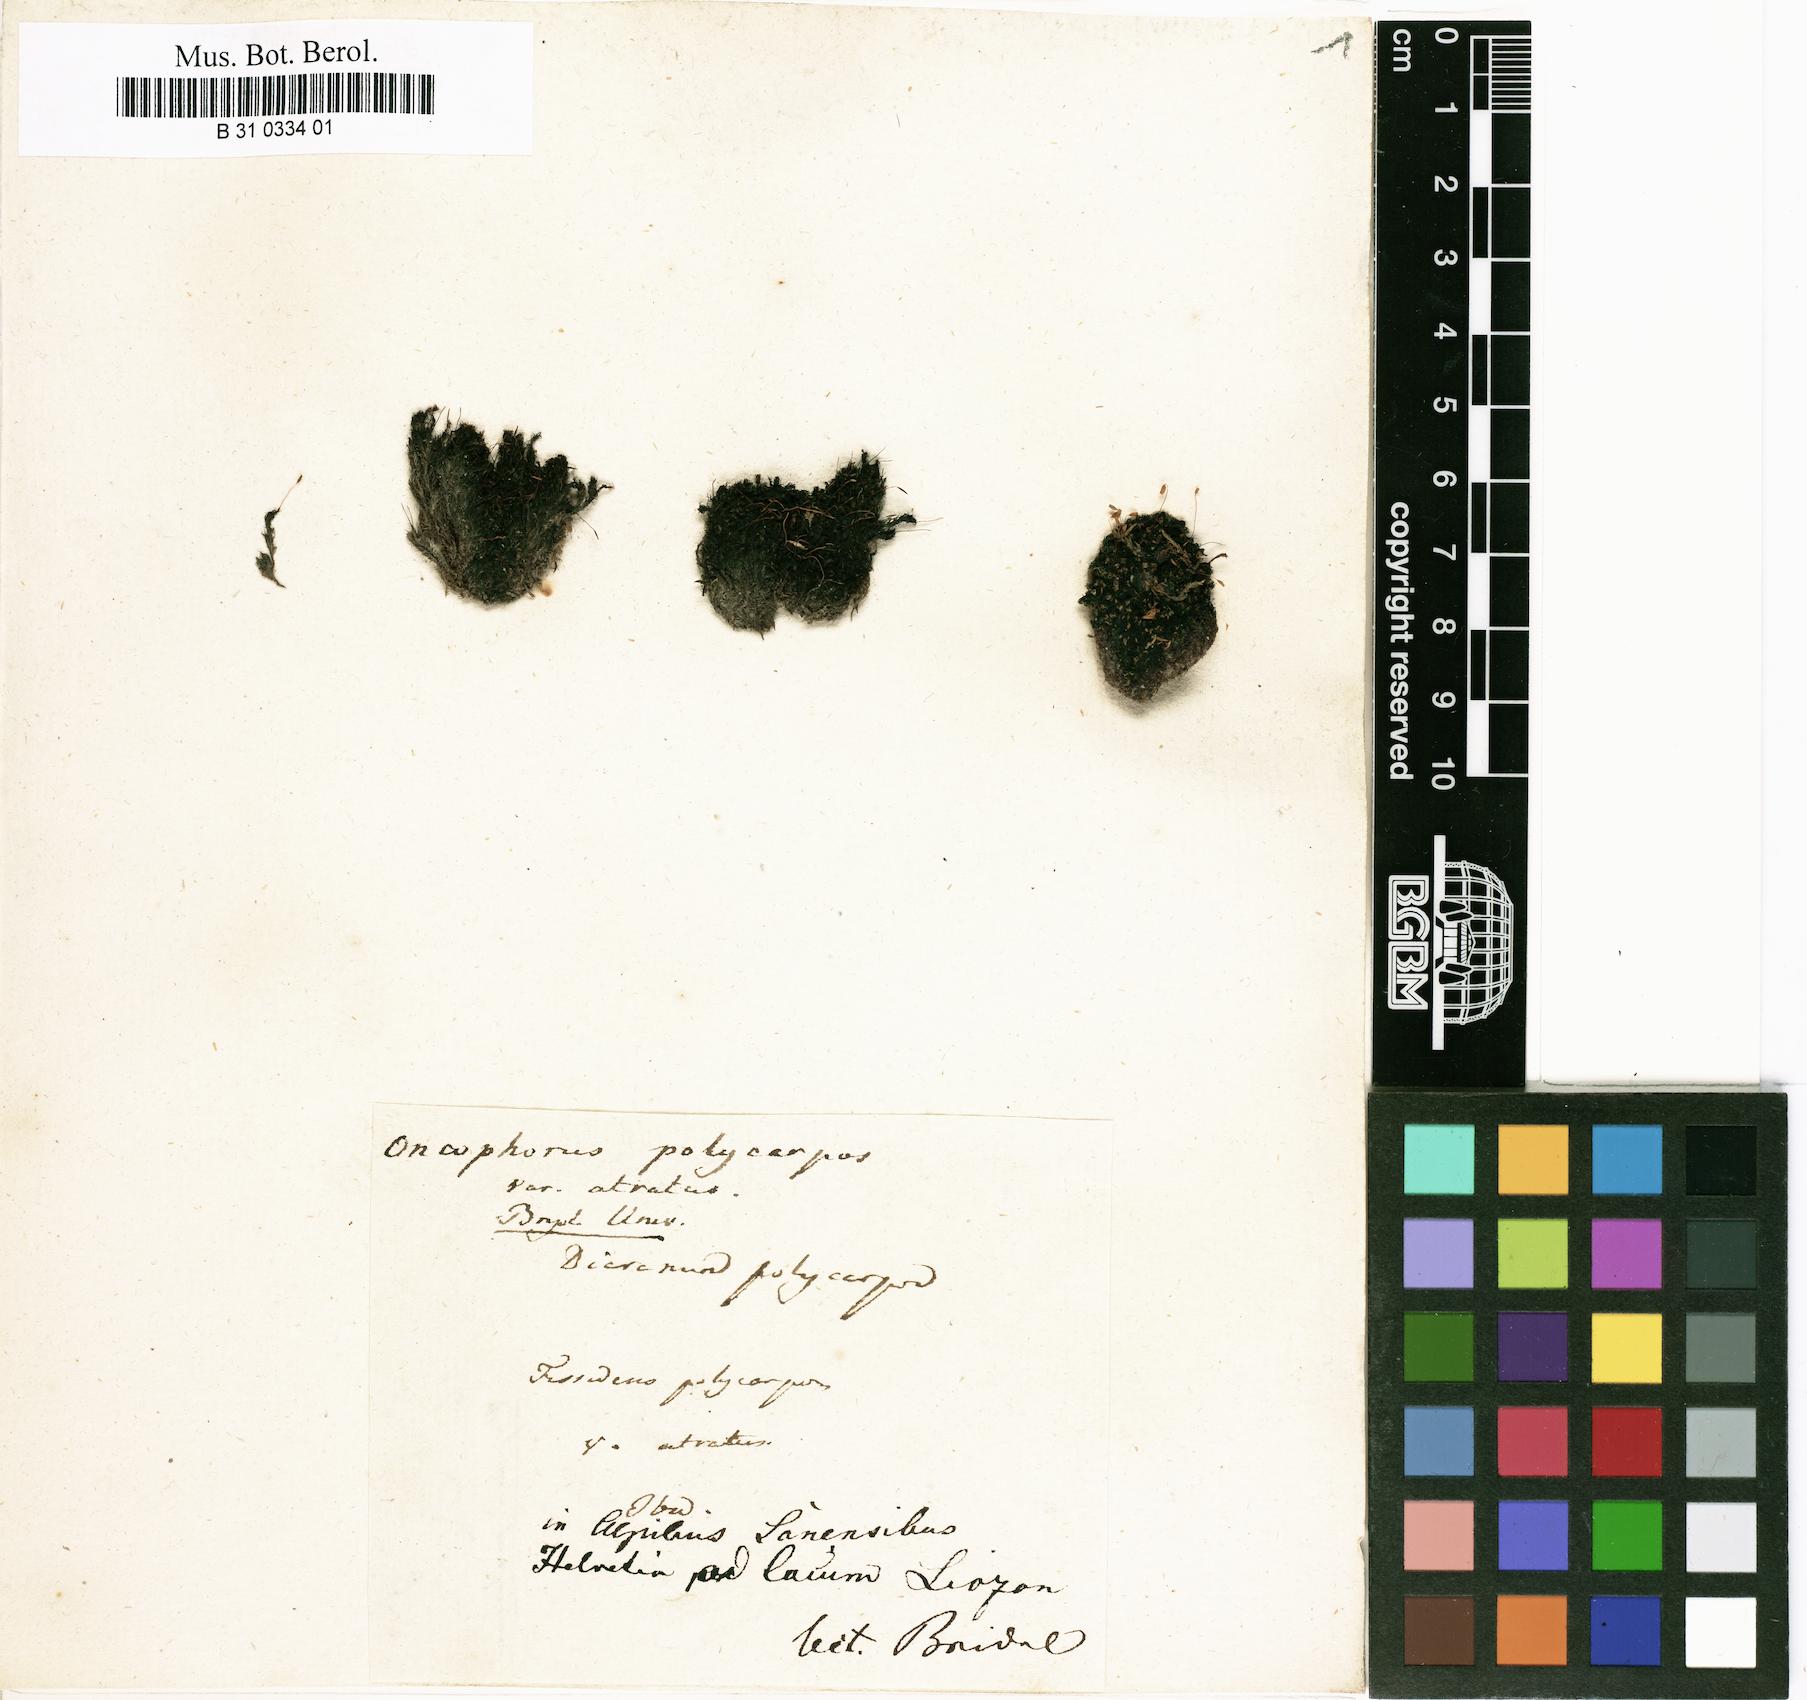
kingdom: Plantae
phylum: Bryophyta
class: Bryopsida
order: Dicranales
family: Rhabdoweisiaceae
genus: Cynodontium
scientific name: Cynodontium polycarpon
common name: Many-fruited dogtooth moss
